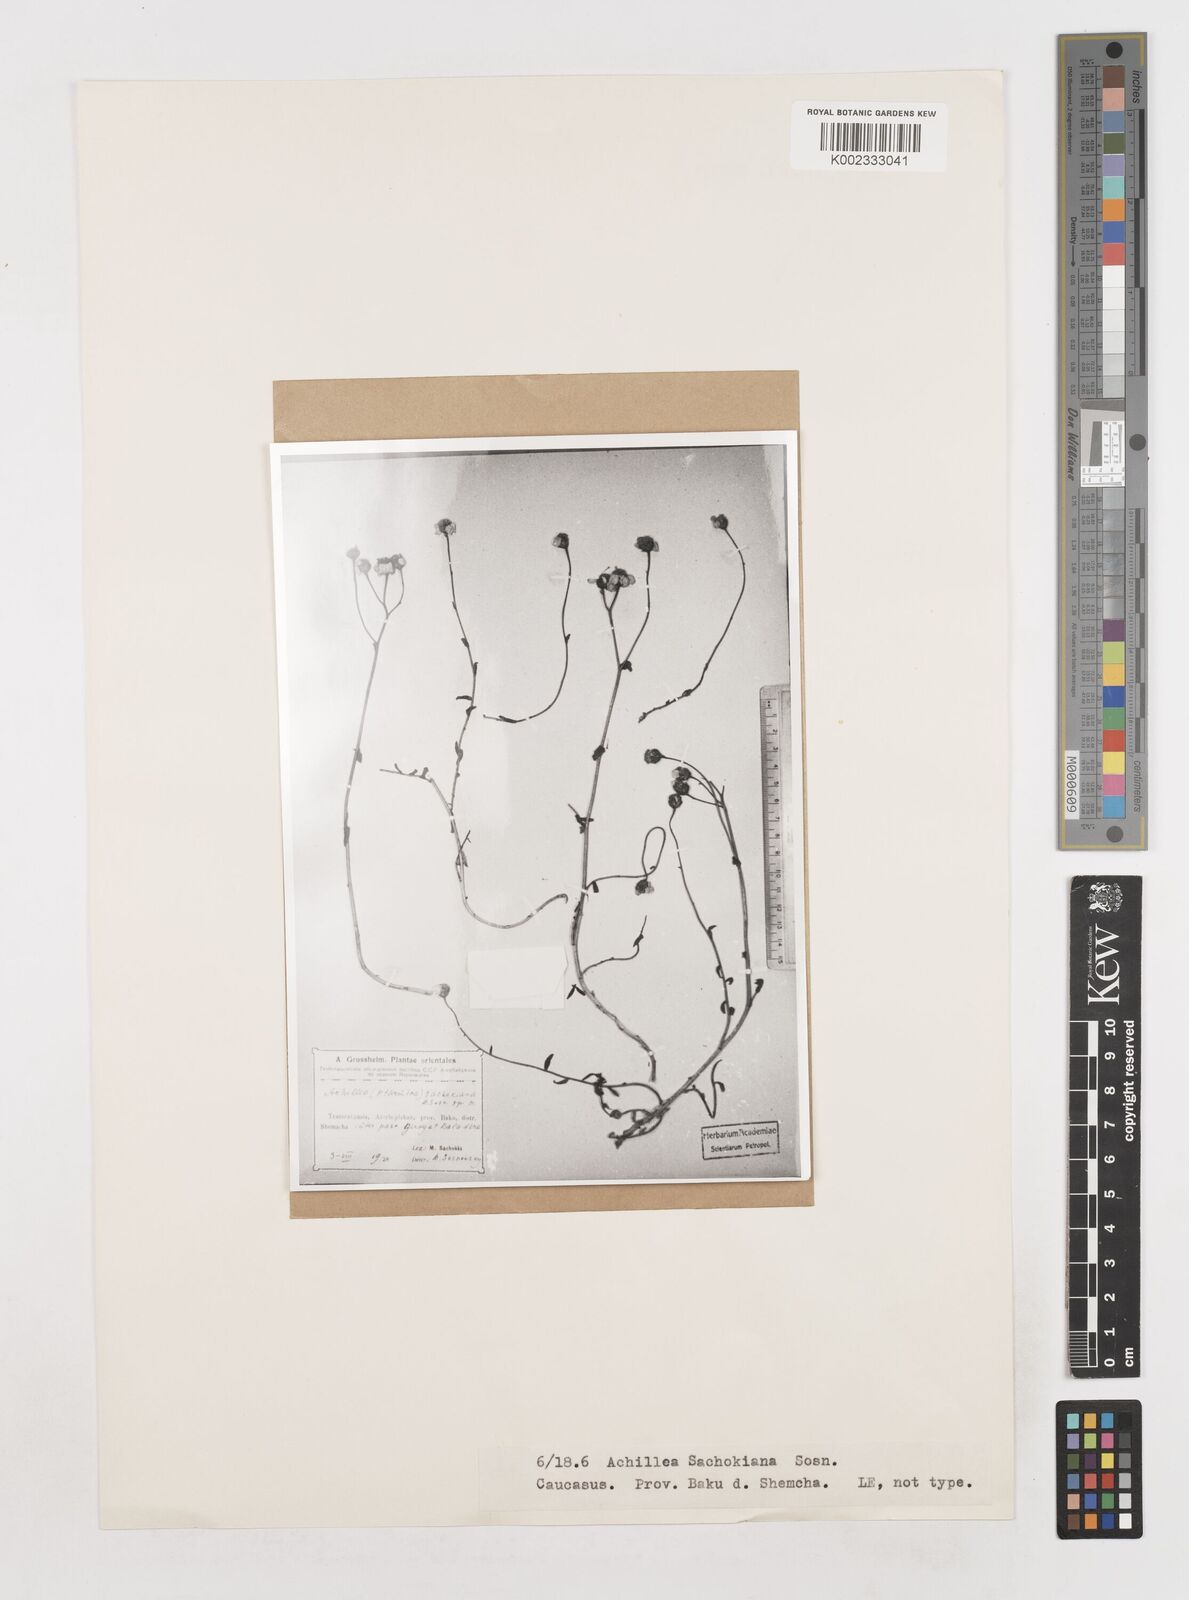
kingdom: Plantae
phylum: Tracheophyta
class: Magnoliopsida
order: Asterales
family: Asteraceae
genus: Achillea
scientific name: Achillea ptarmicifolia
